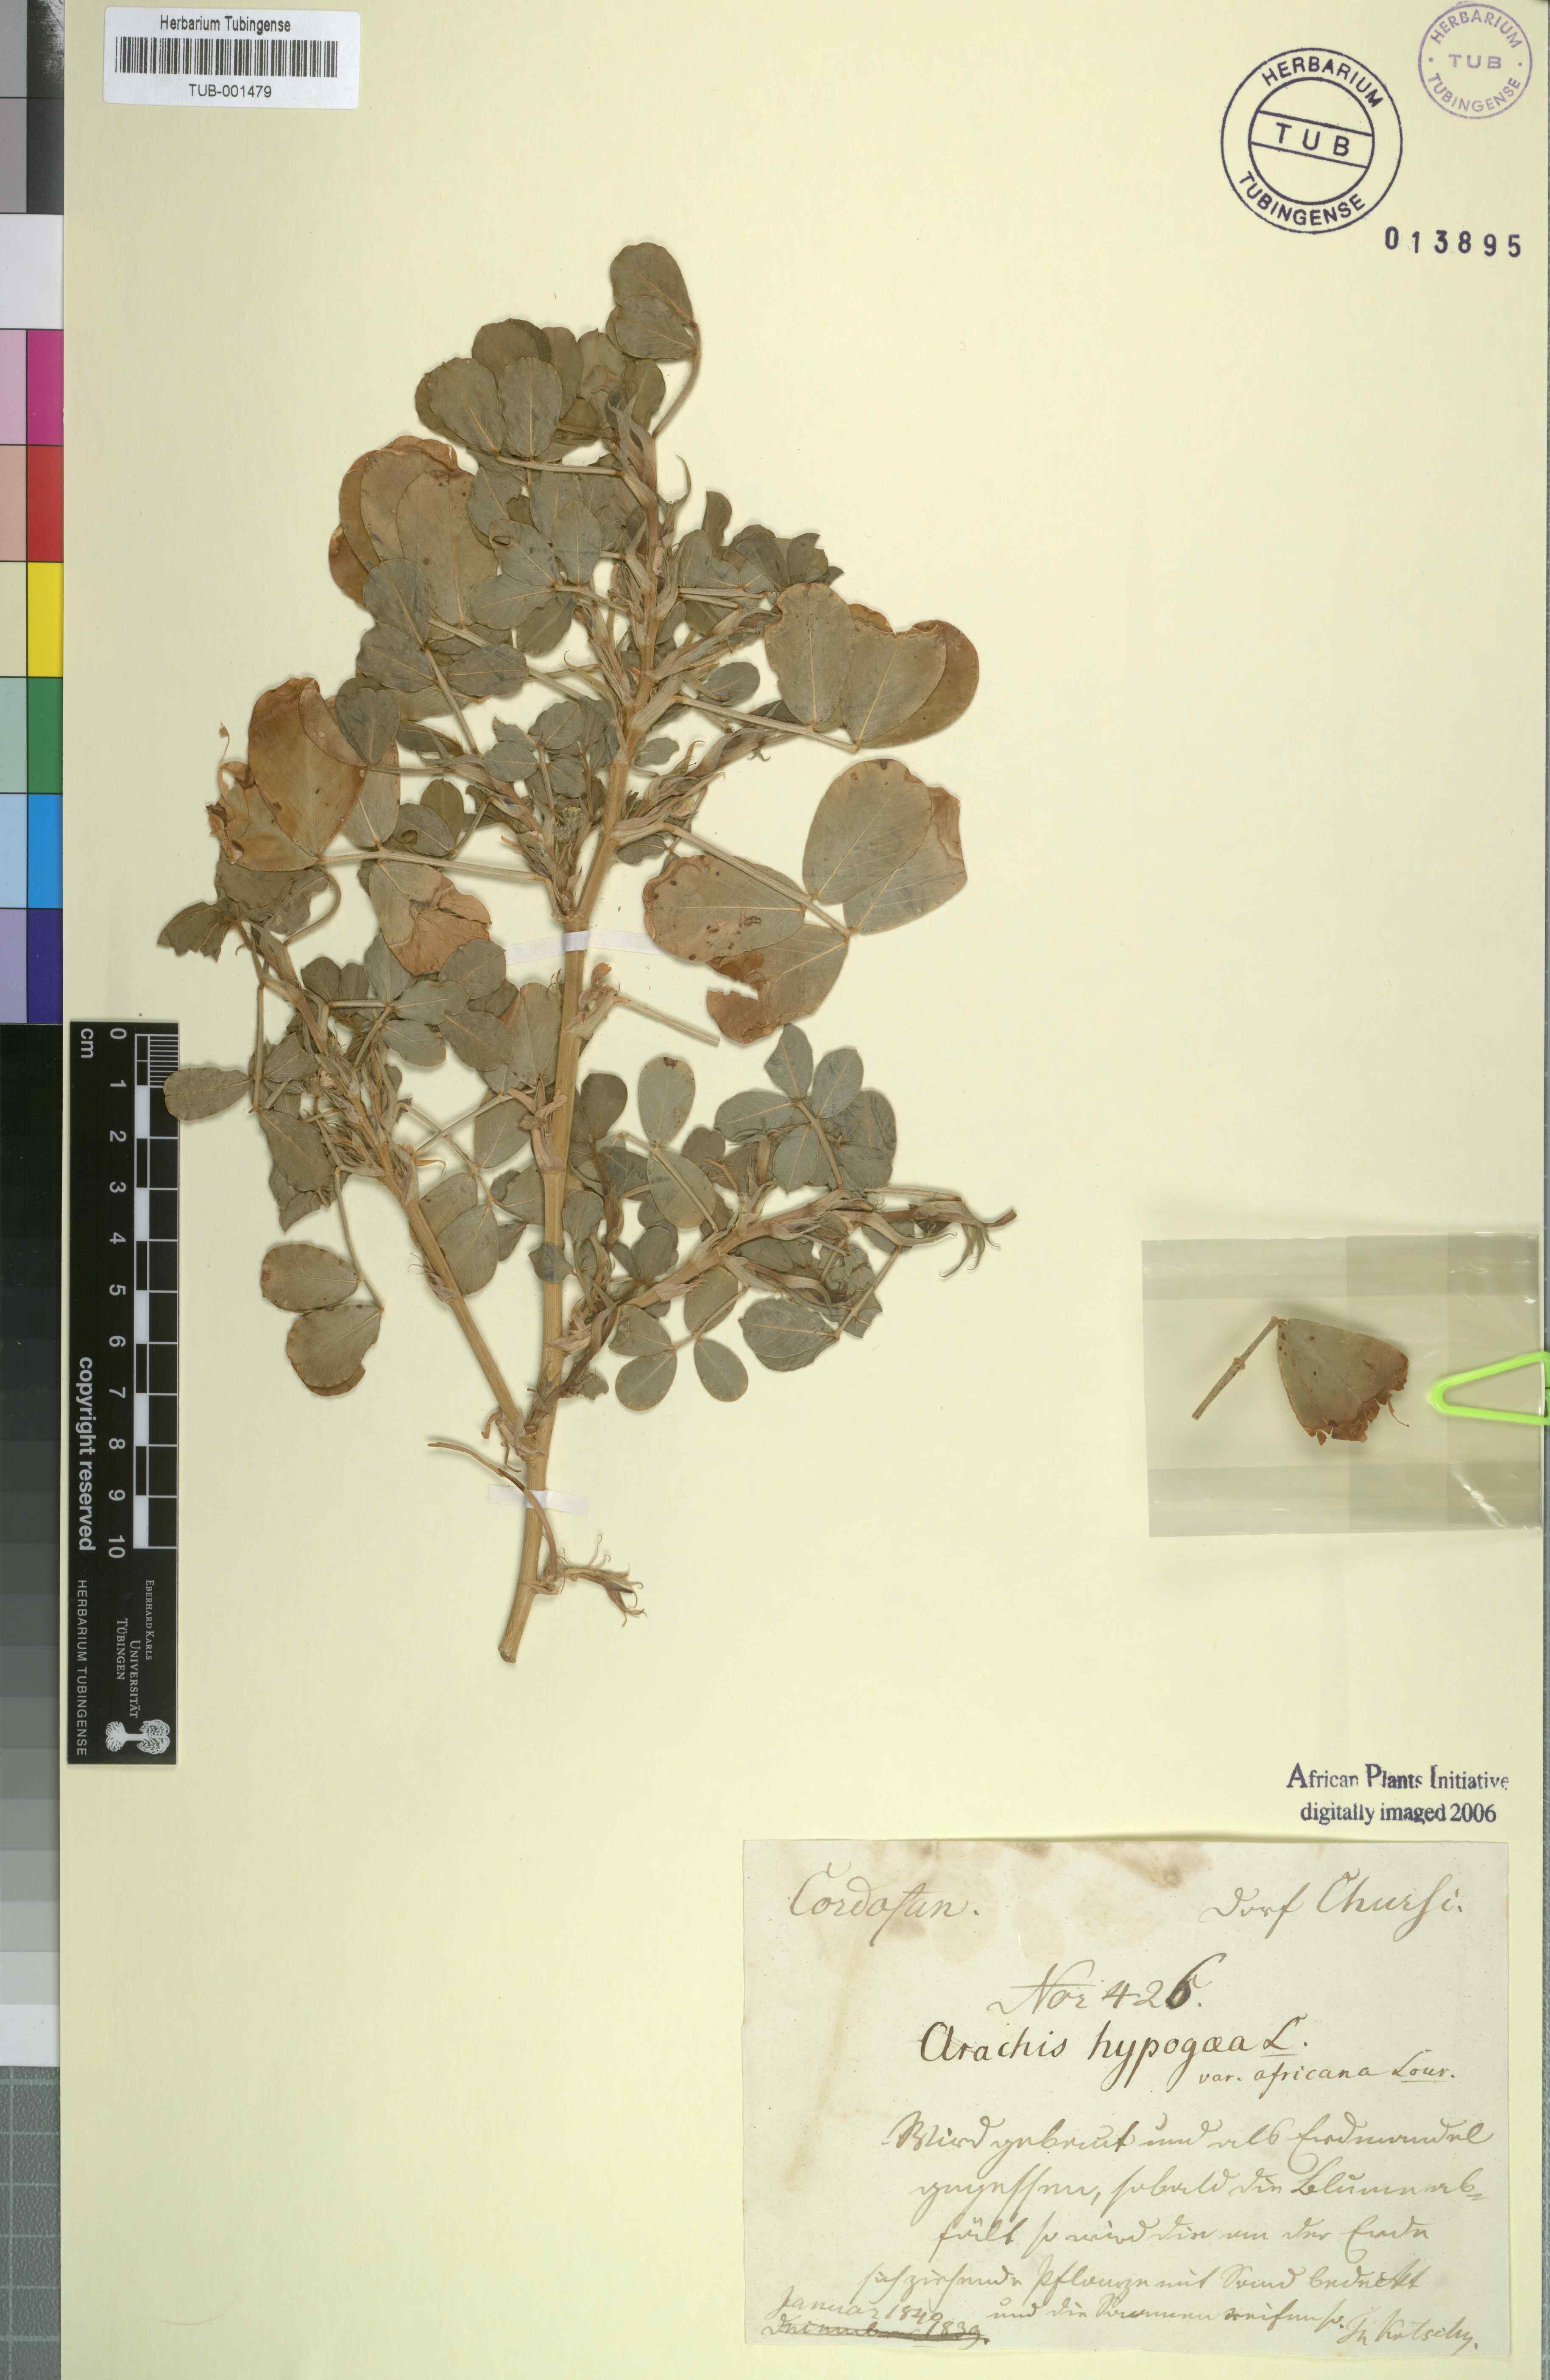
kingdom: Plantae
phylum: Tracheophyta
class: Magnoliopsida
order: Fabales
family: Fabaceae
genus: Arachis
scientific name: Arachis hypogaea
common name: Peanut
